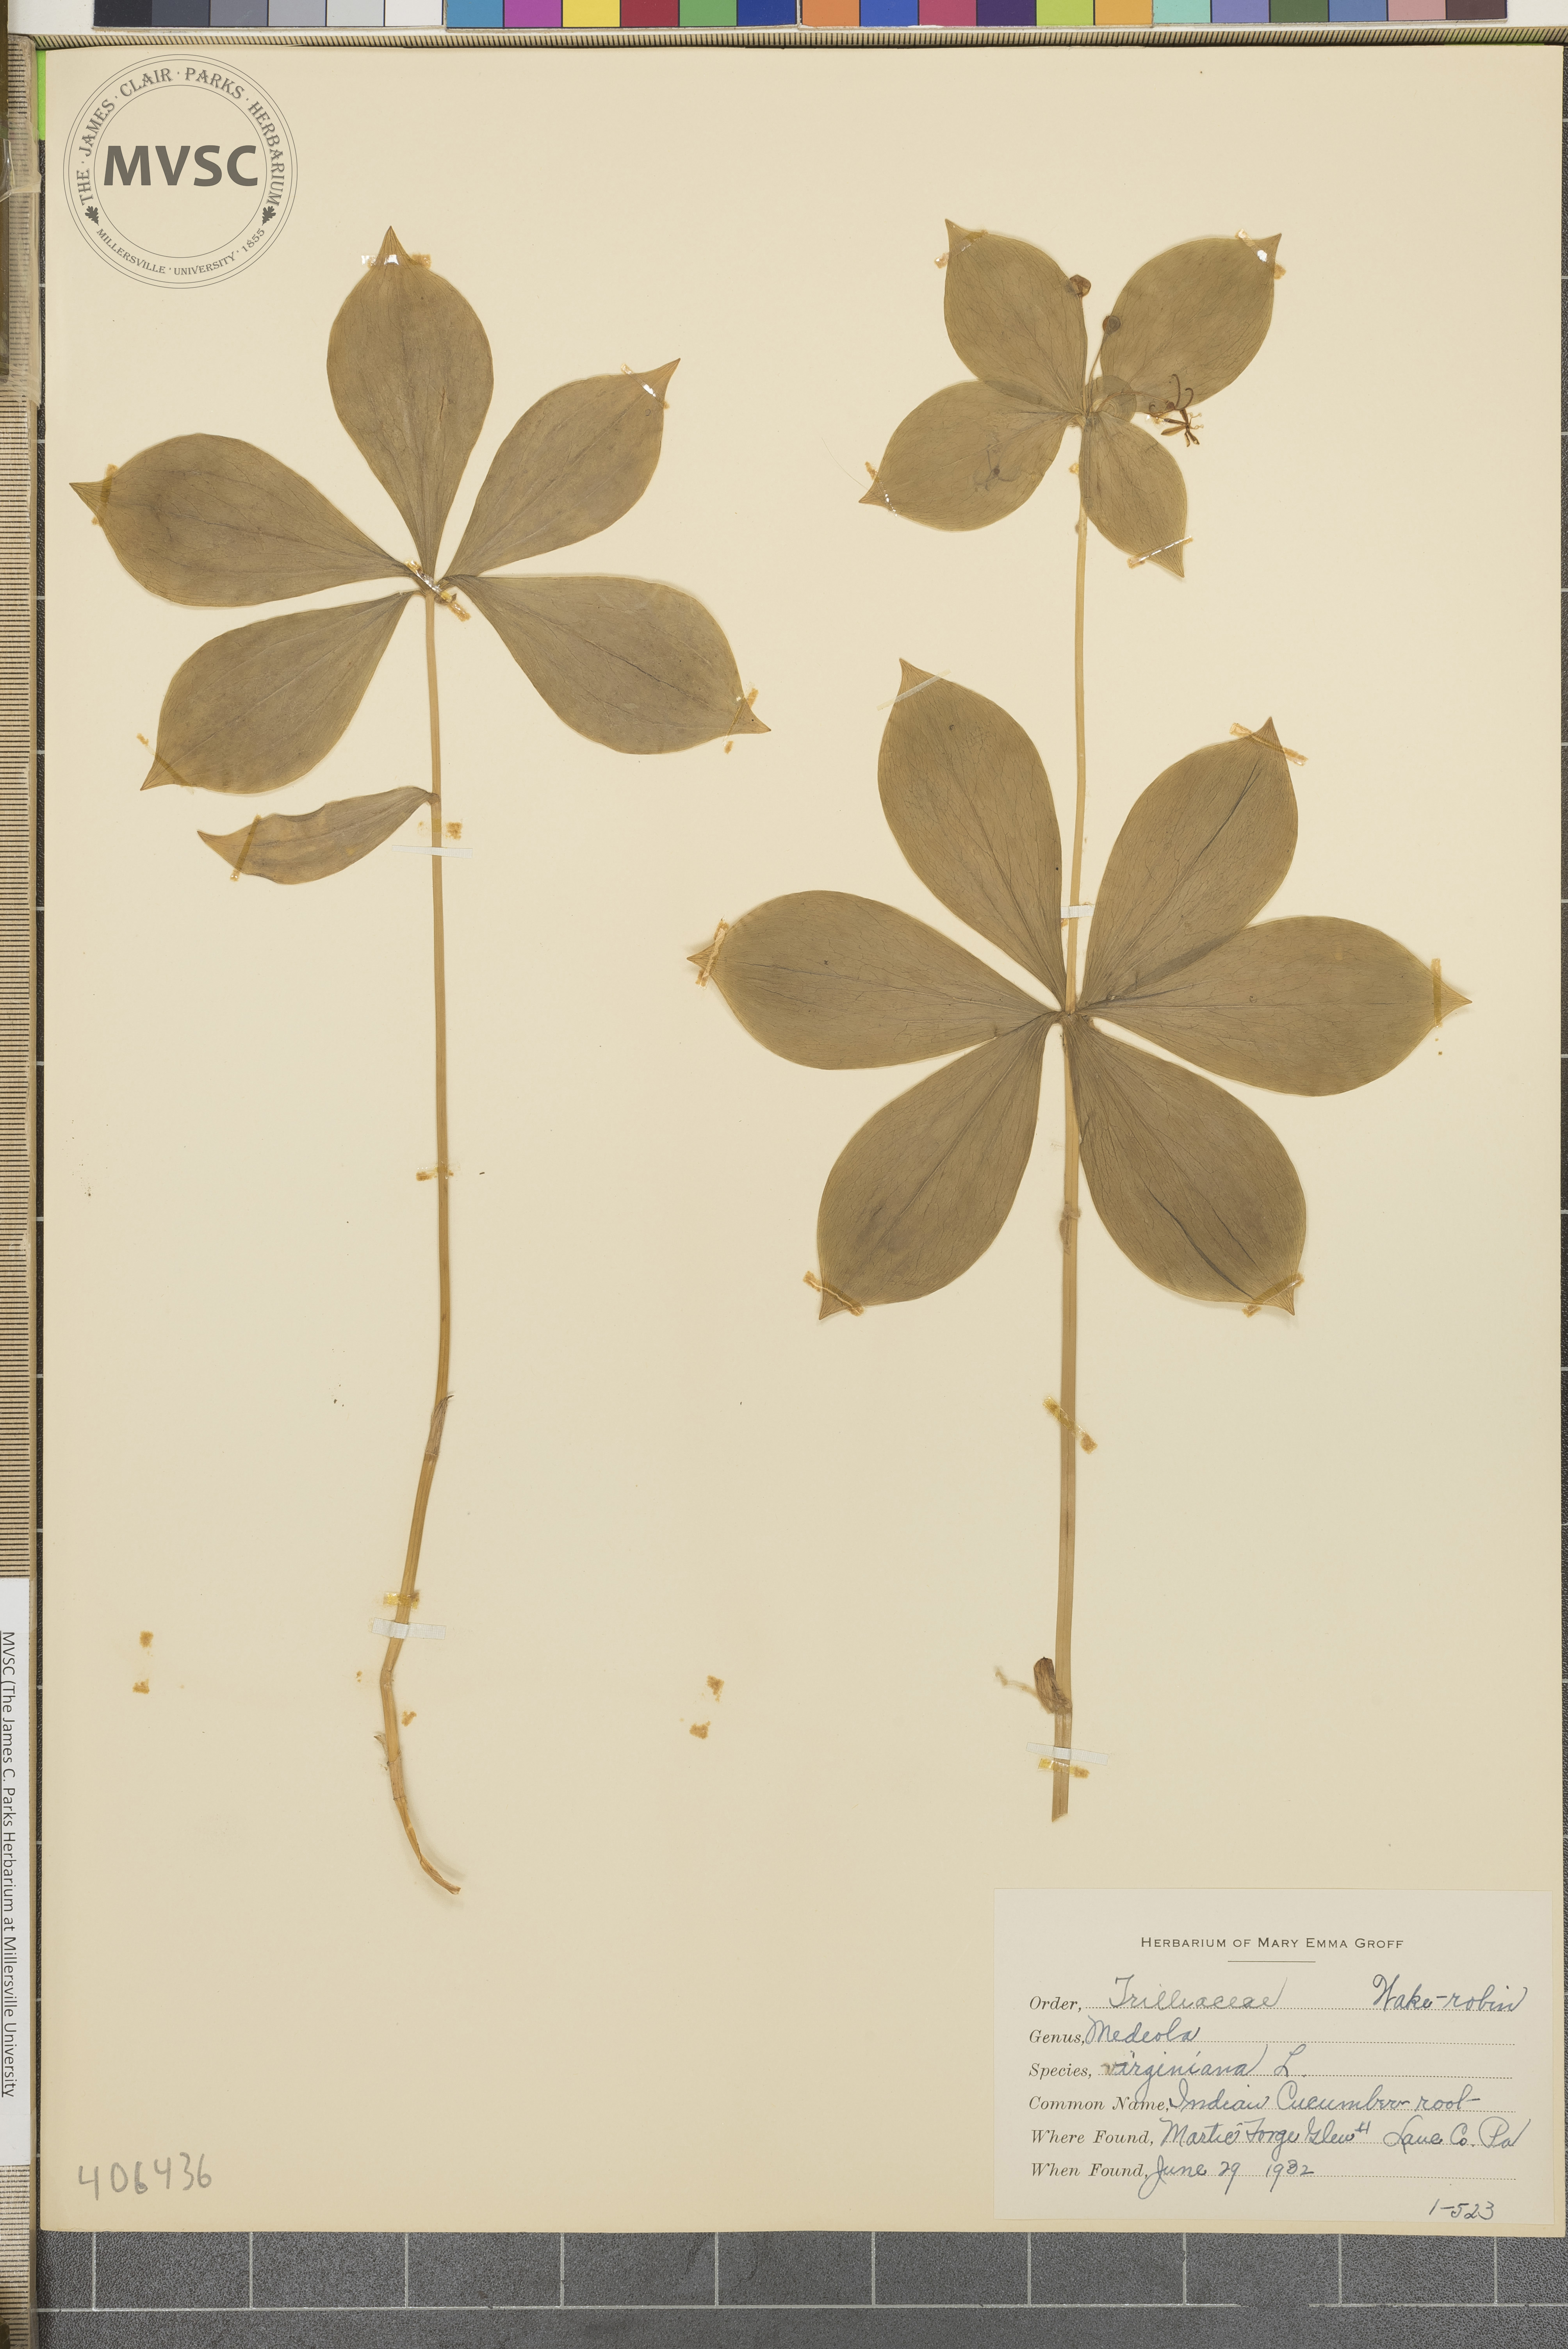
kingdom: Plantae
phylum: Tracheophyta
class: Liliopsida
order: Liliales
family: Liliaceae
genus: Medeola
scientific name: Medeola virginiana
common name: Indian Cucumber root
